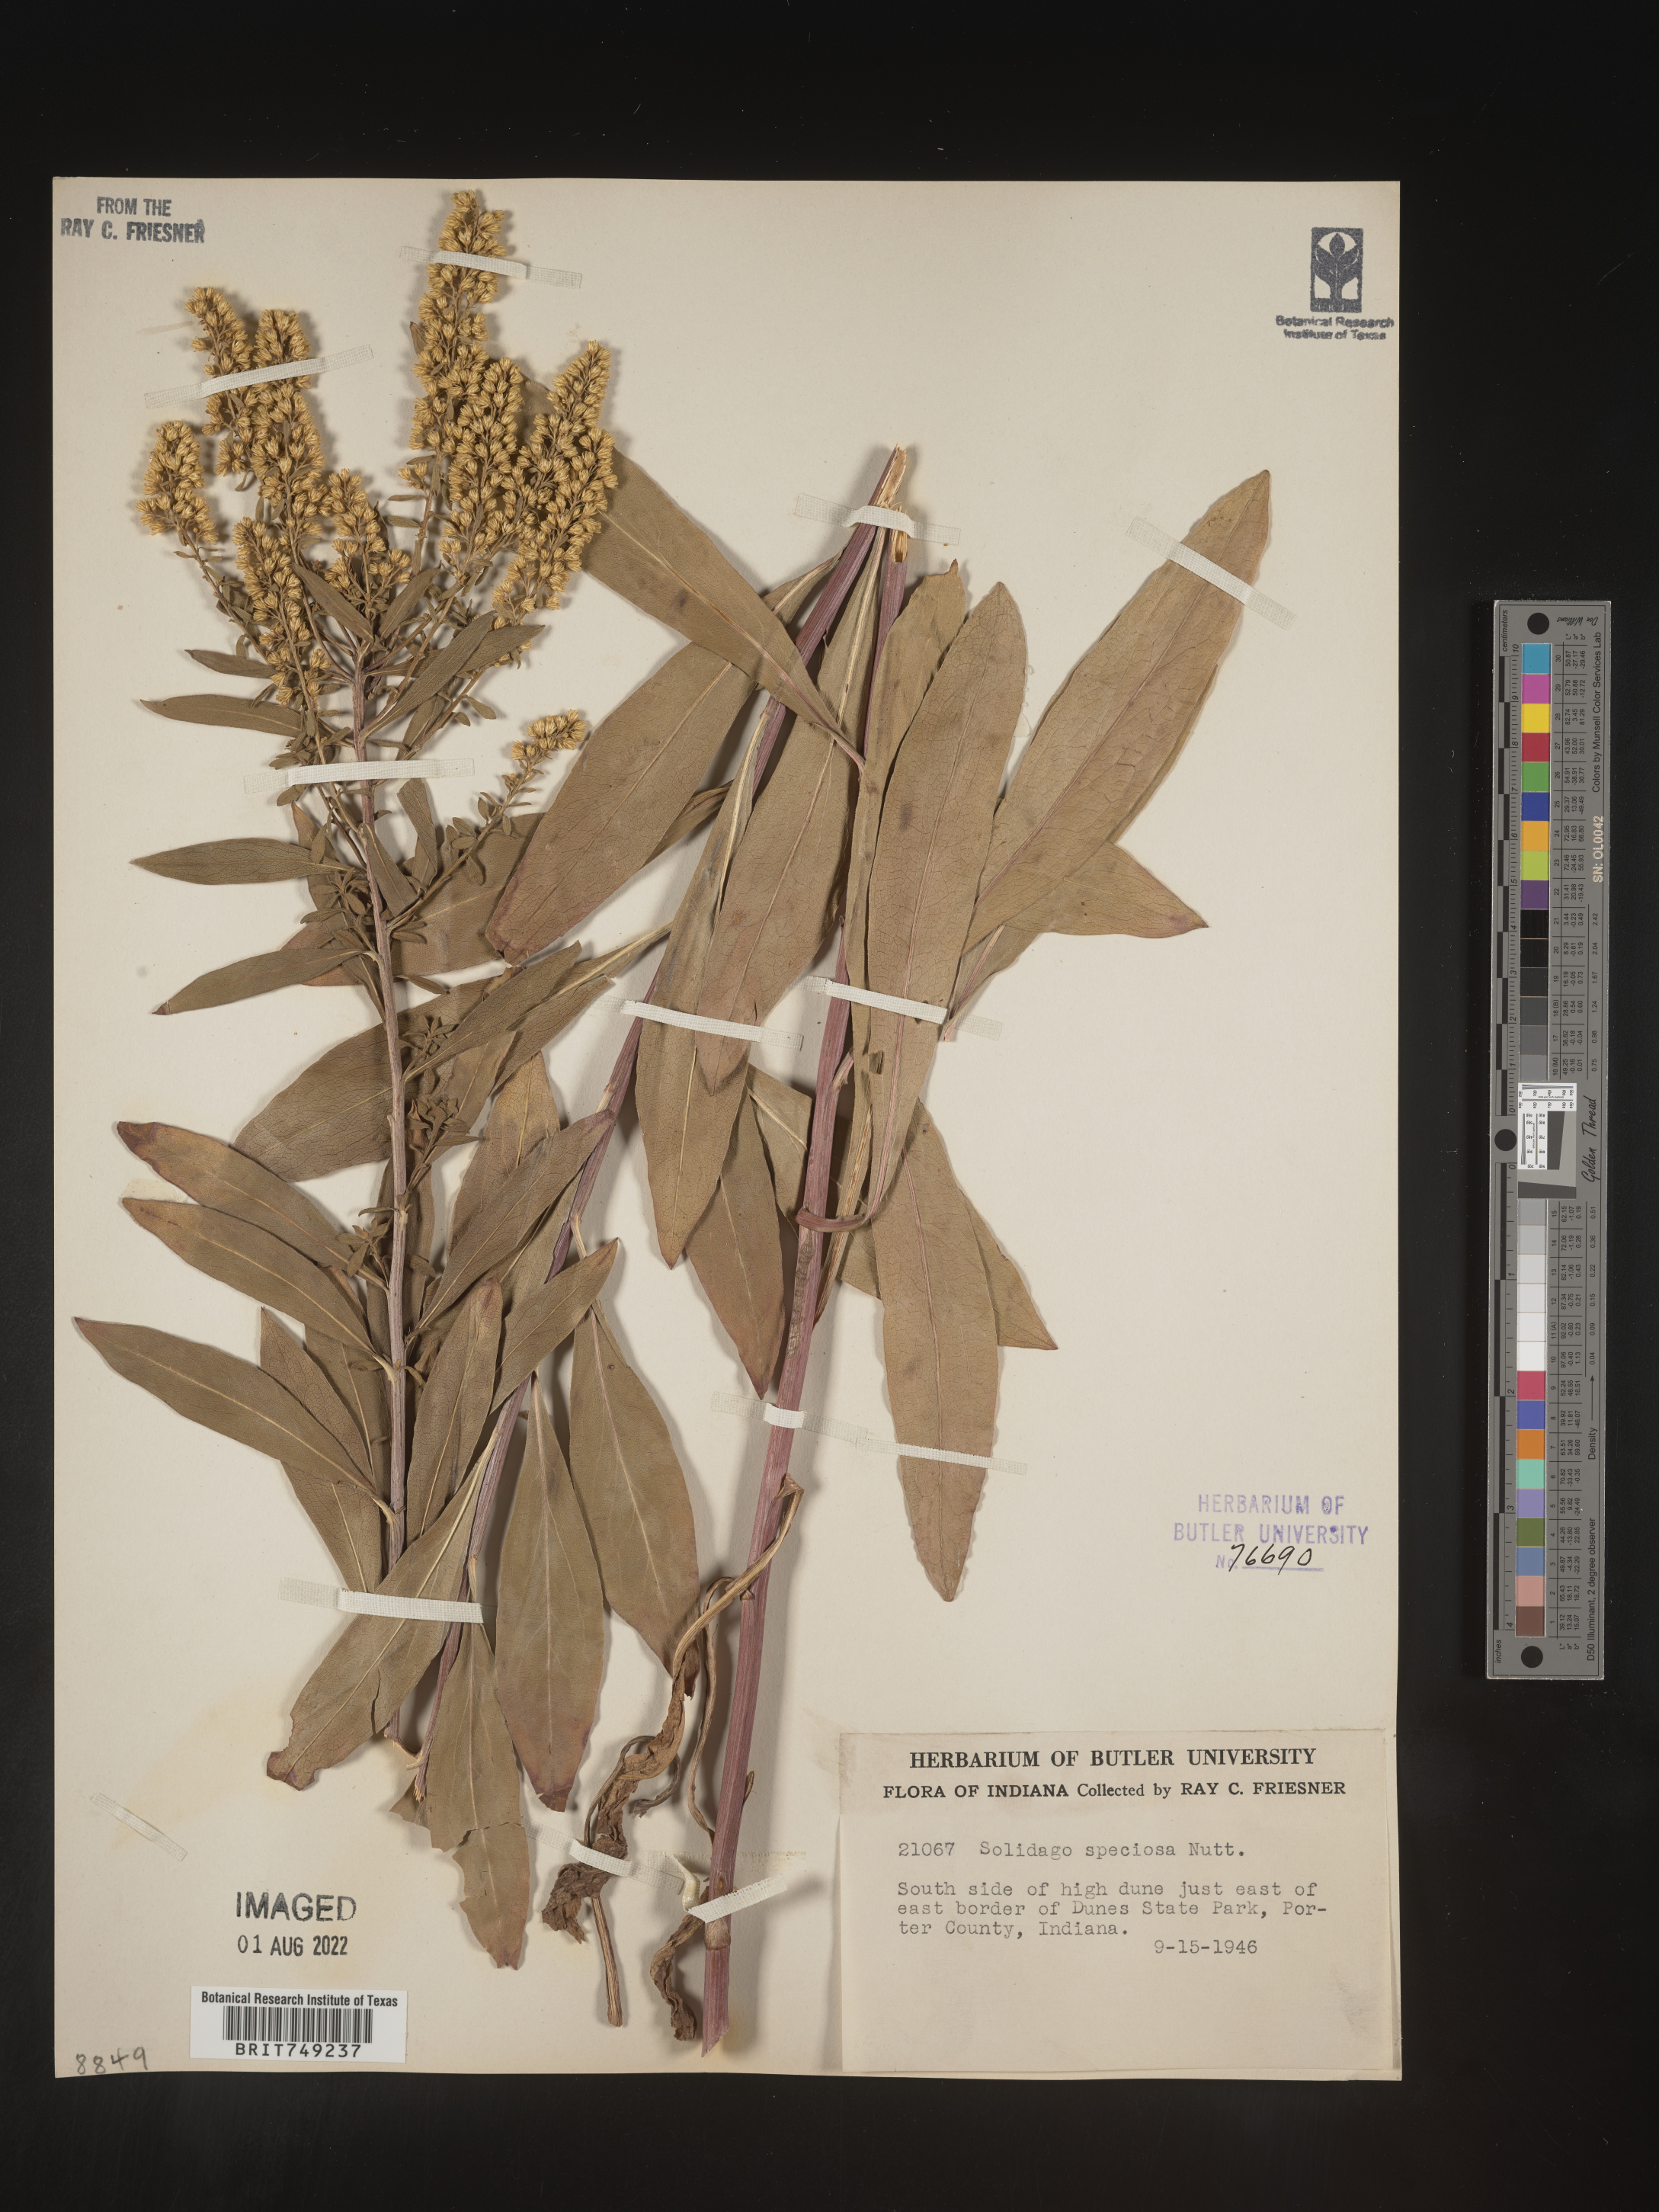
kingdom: Plantae
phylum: Tracheophyta
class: Magnoliopsida
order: Asterales
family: Asteraceae
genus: Solidago
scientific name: Solidago speciosa
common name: Showy goldenrod
